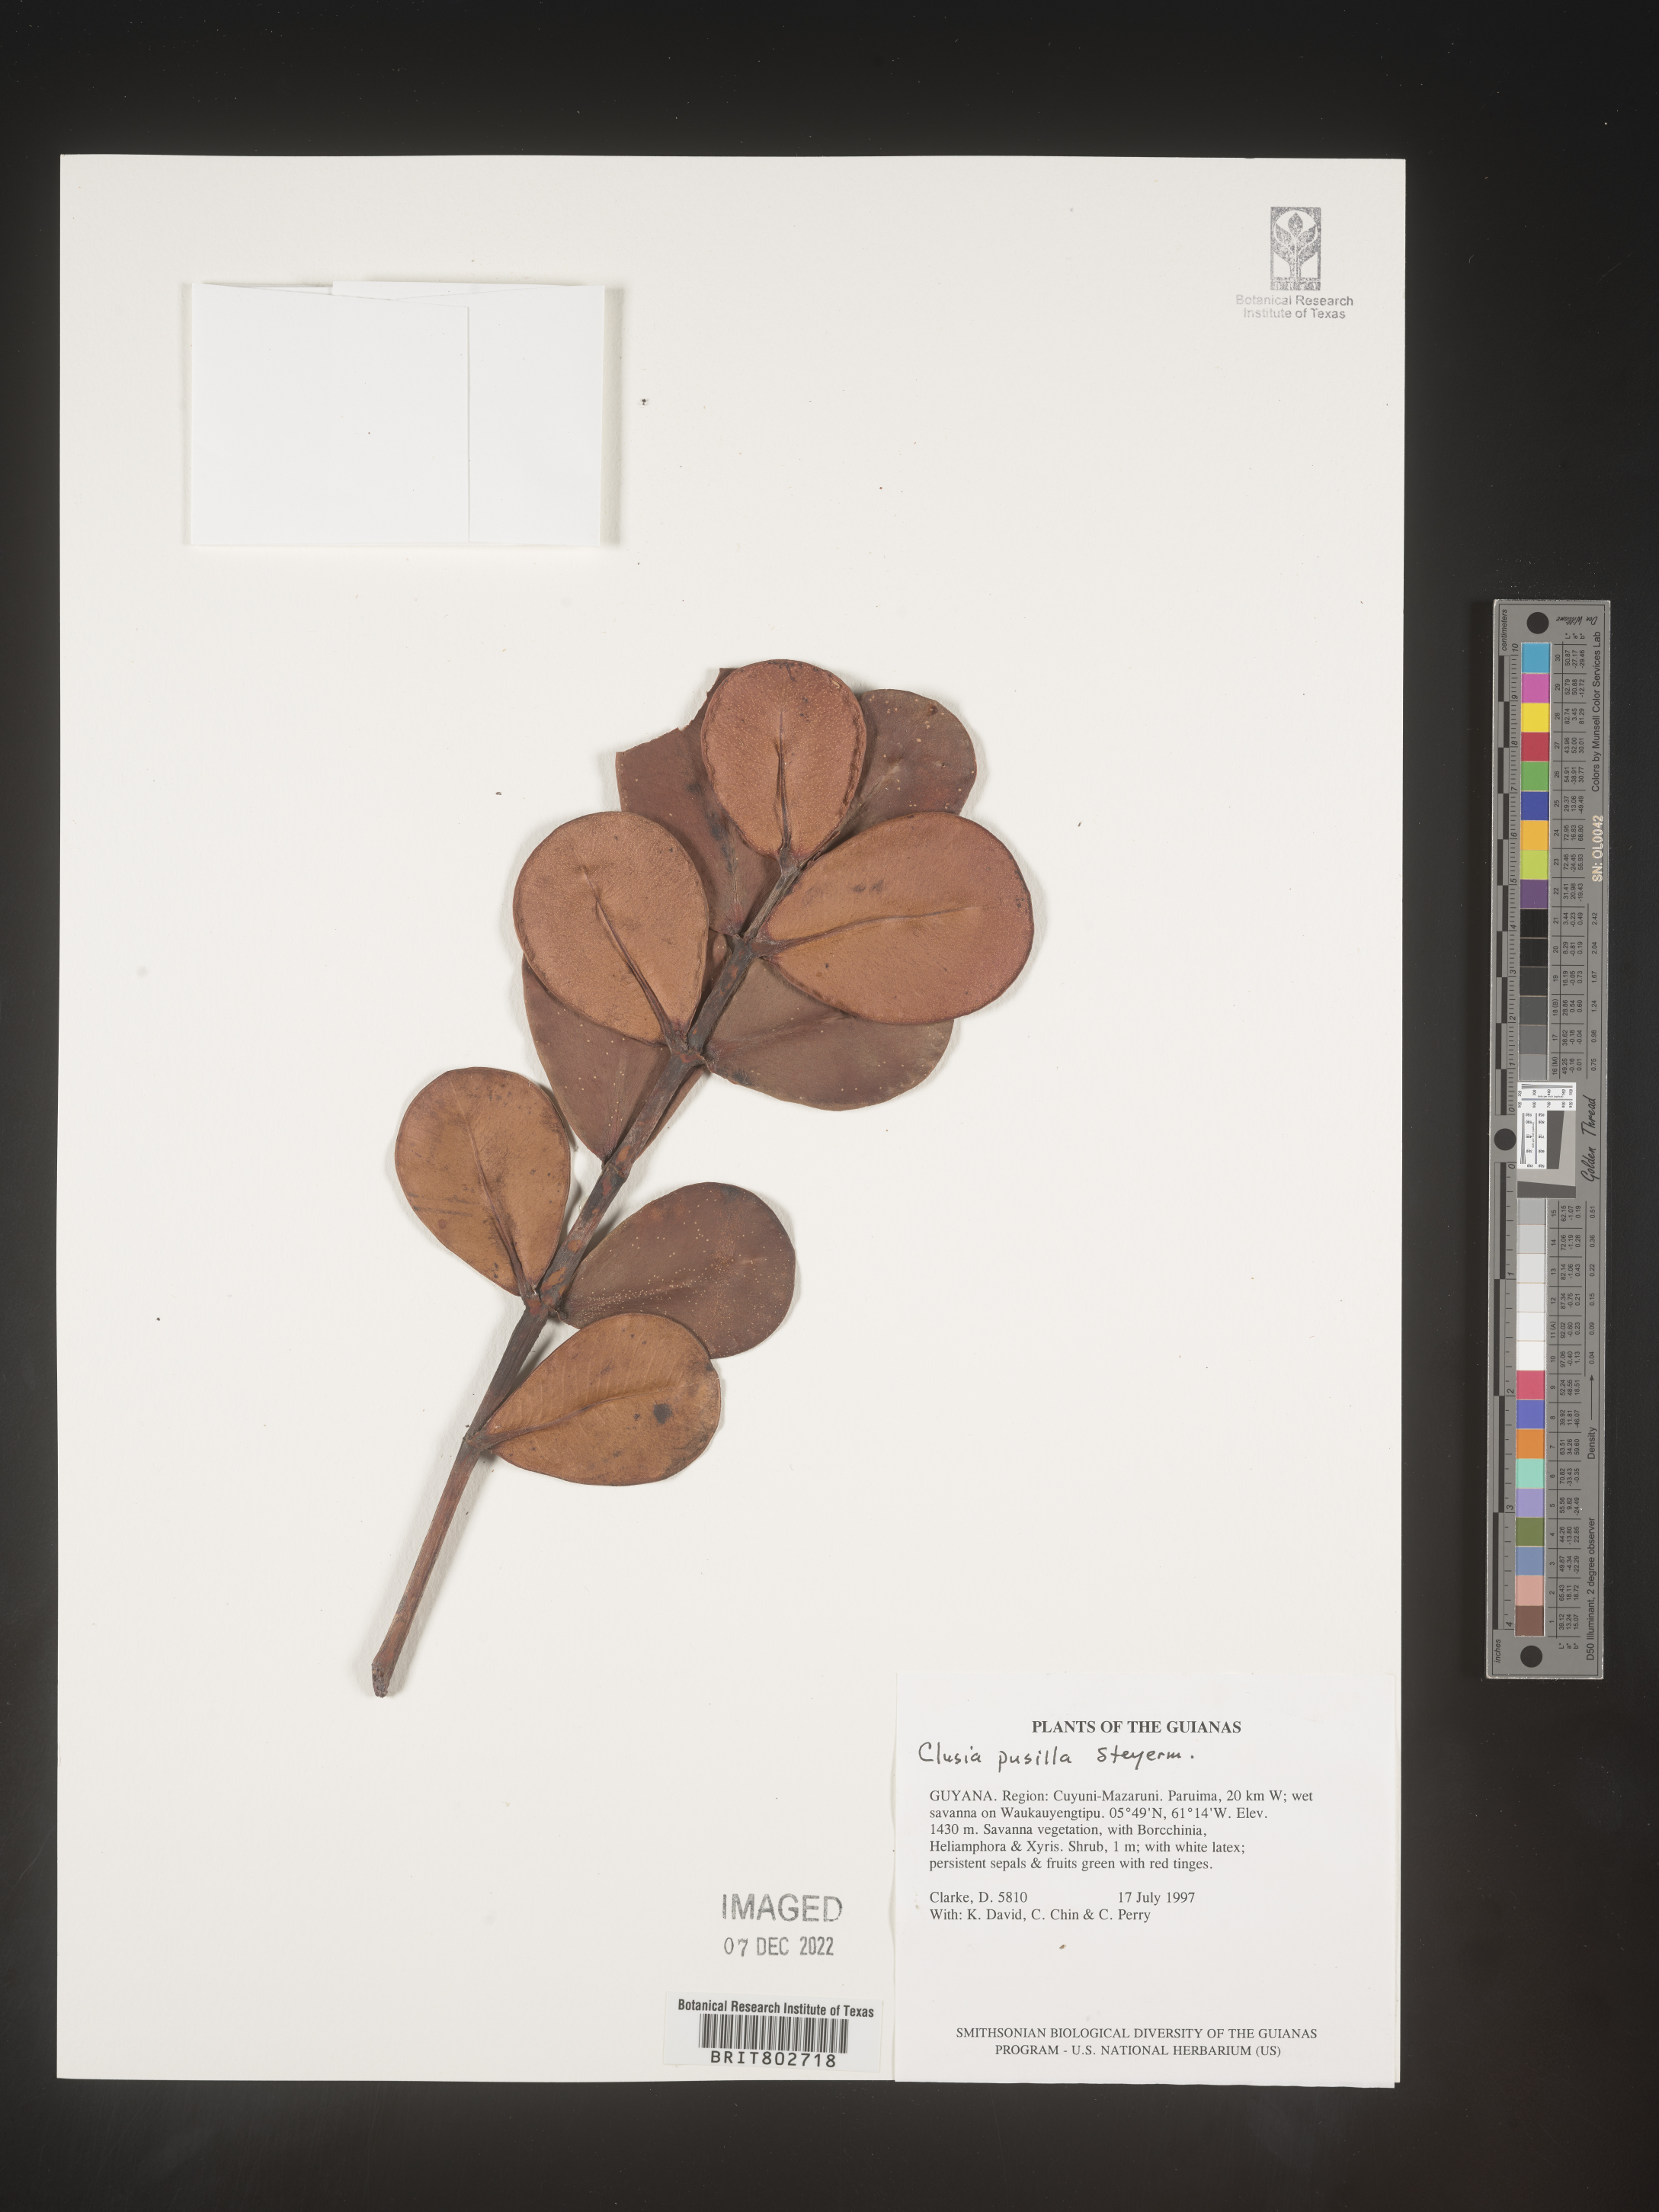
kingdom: Plantae
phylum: Tracheophyta
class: Magnoliopsida
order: Malpighiales
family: Clusiaceae
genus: Clusia
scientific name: Clusia pusilla
